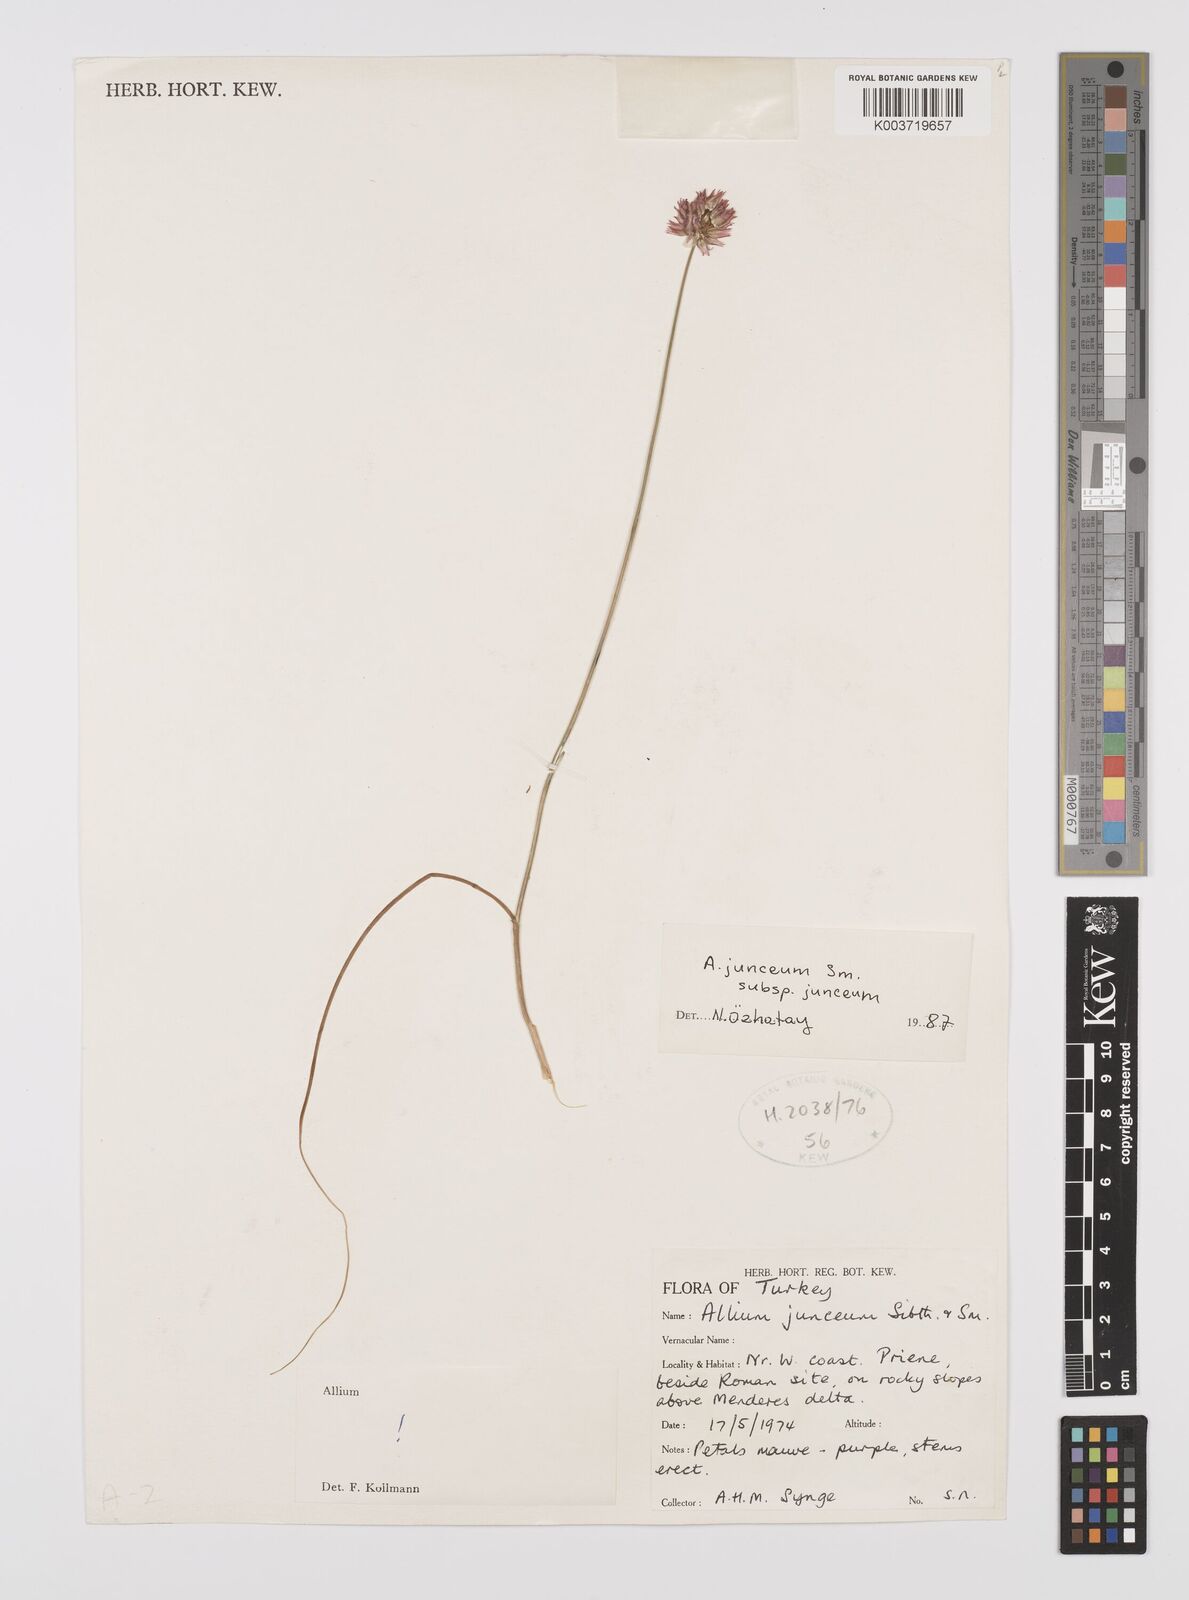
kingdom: Plantae
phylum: Tracheophyta
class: Liliopsida
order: Asparagales
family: Amaryllidaceae
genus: Allium
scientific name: Allium junceum
